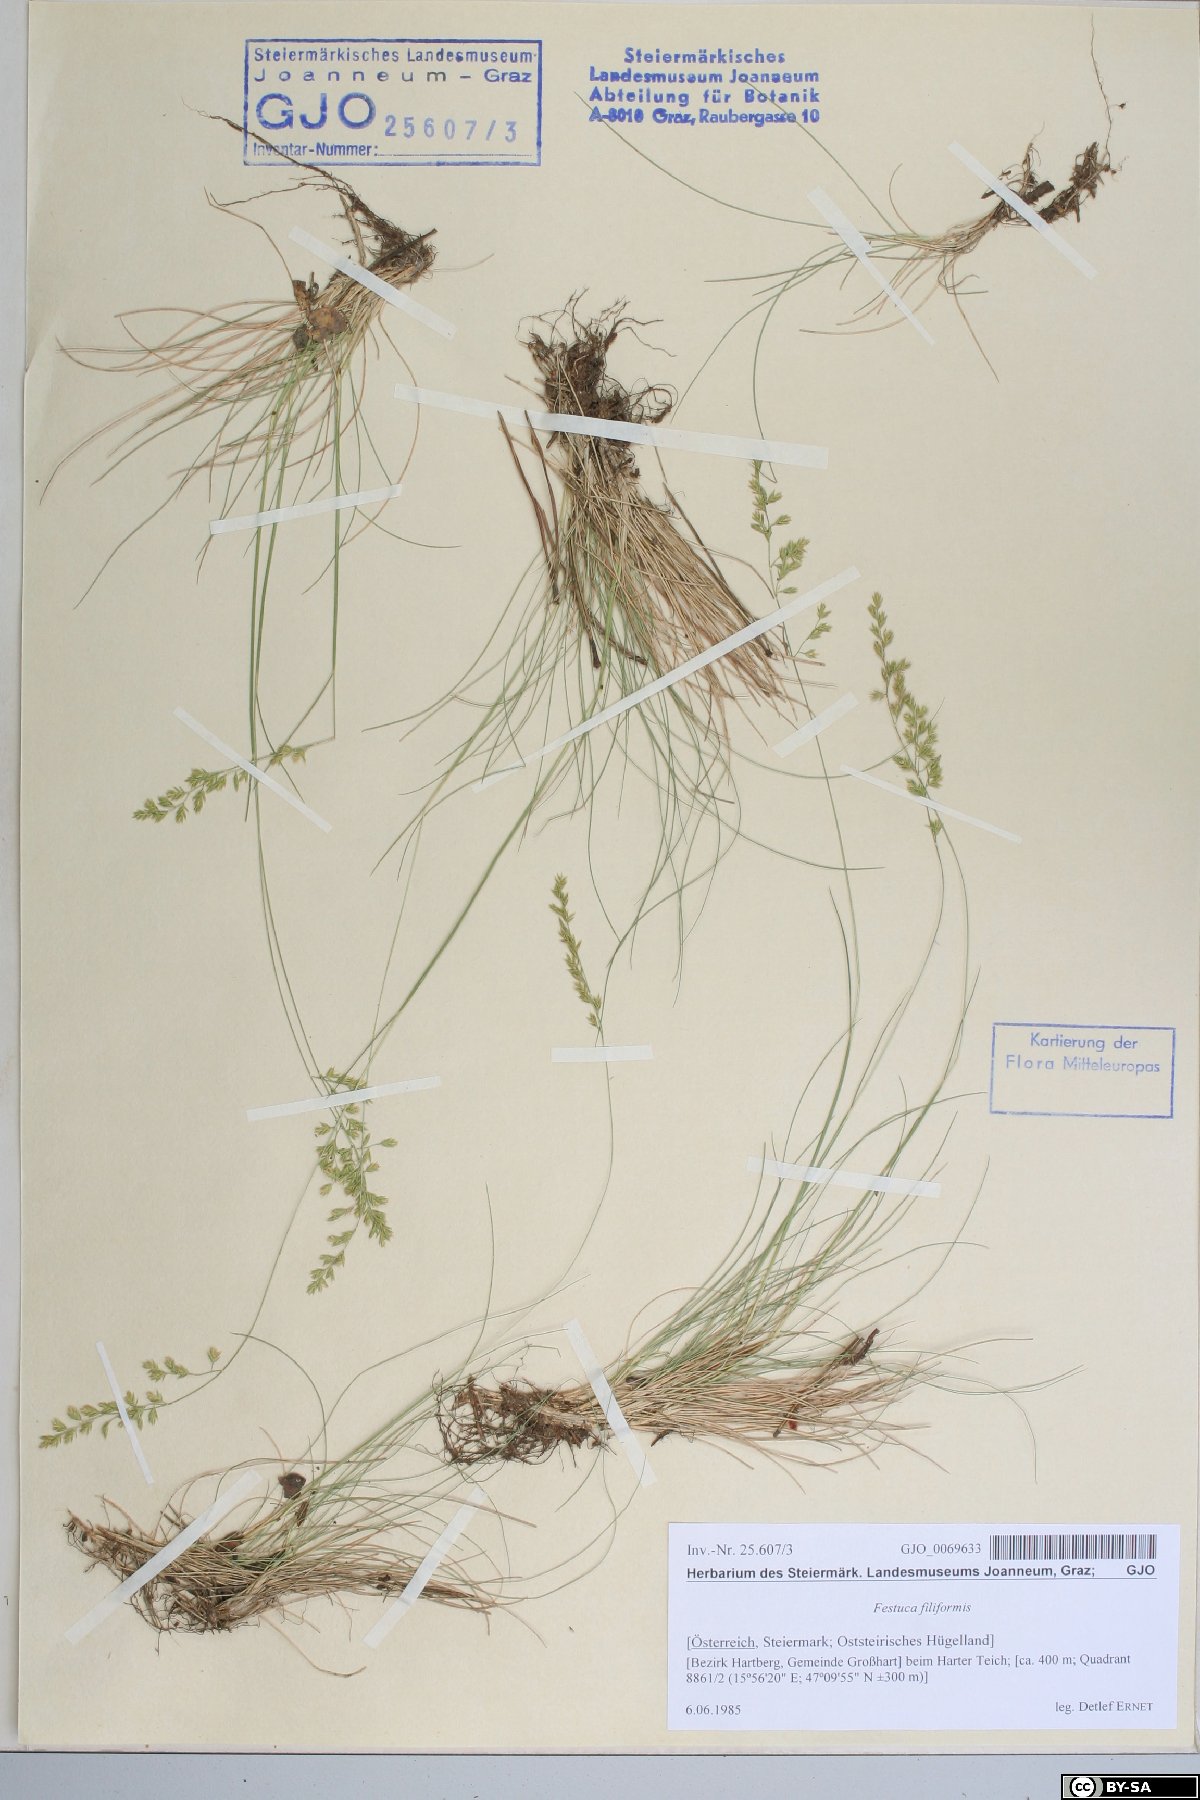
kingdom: Plantae
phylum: Tracheophyta
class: Liliopsida
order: Poales
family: Poaceae
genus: Festuca
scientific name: Festuca filiformis
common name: Fine-leaved sheep's-fescue
